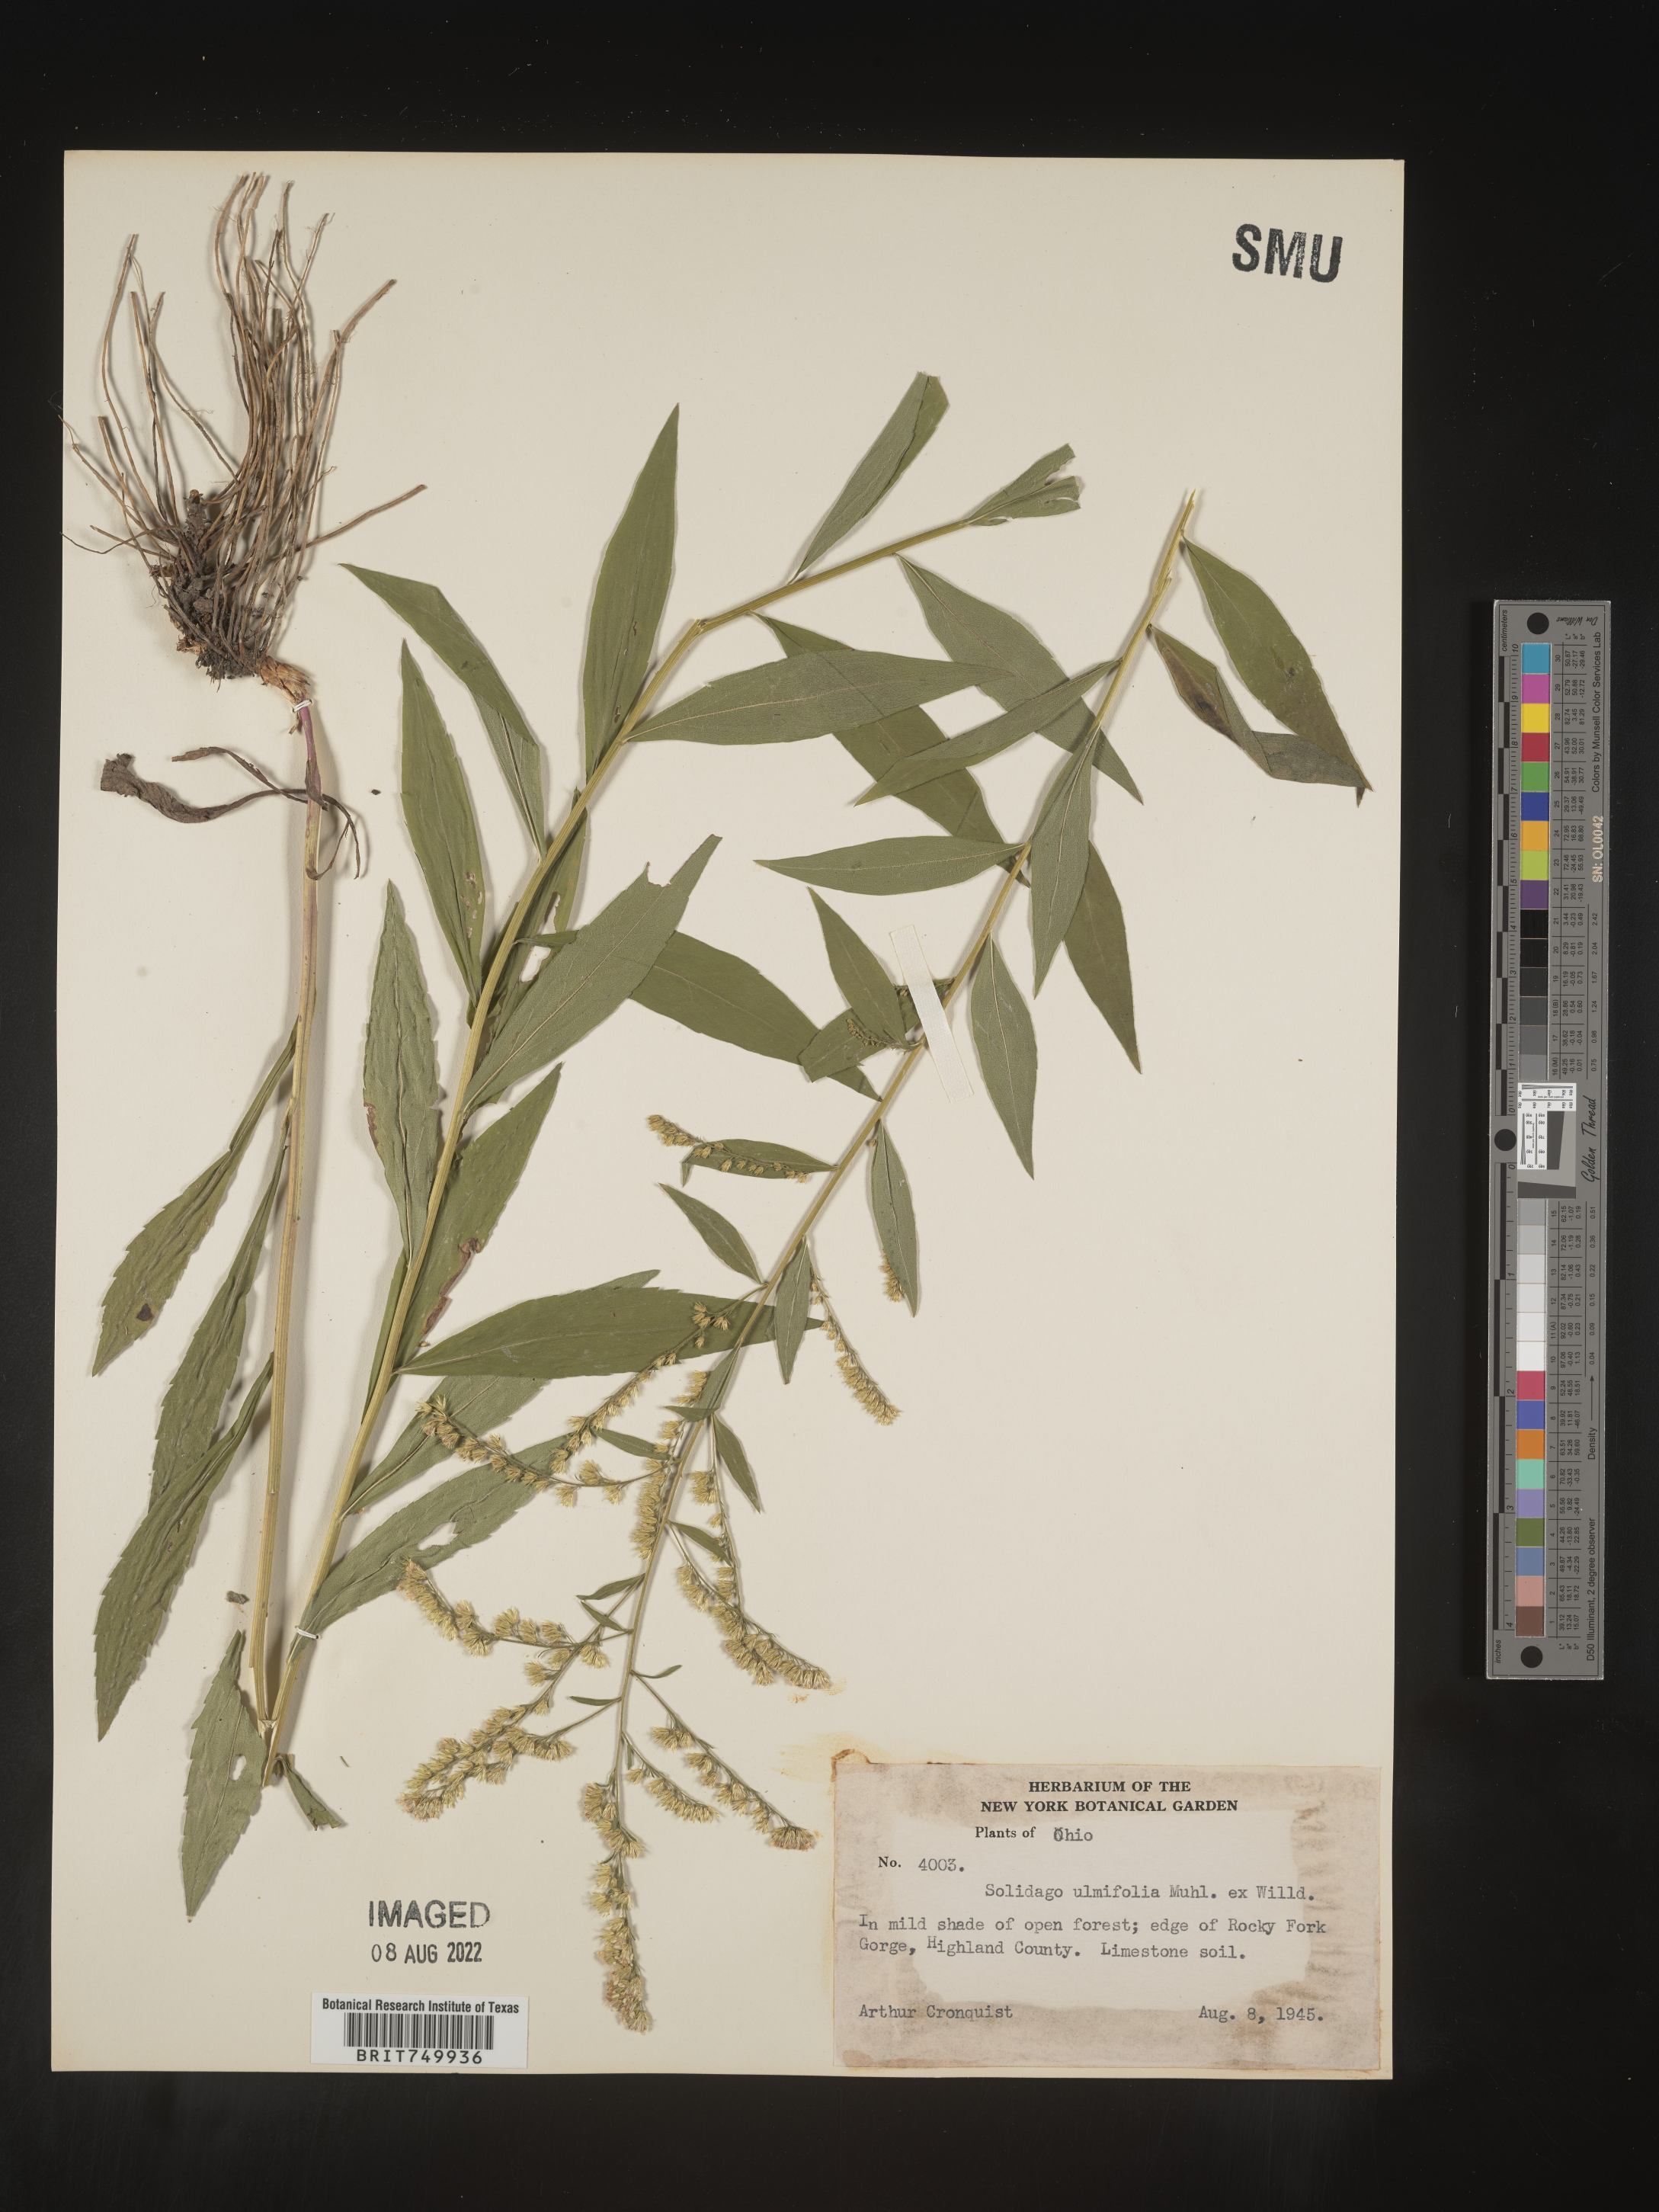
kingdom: Plantae
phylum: Tracheophyta
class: Magnoliopsida
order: Asterales
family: Asteraceae
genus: Solidago
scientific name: Solidago ulmifolia
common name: Elm-leaf goldenrod
